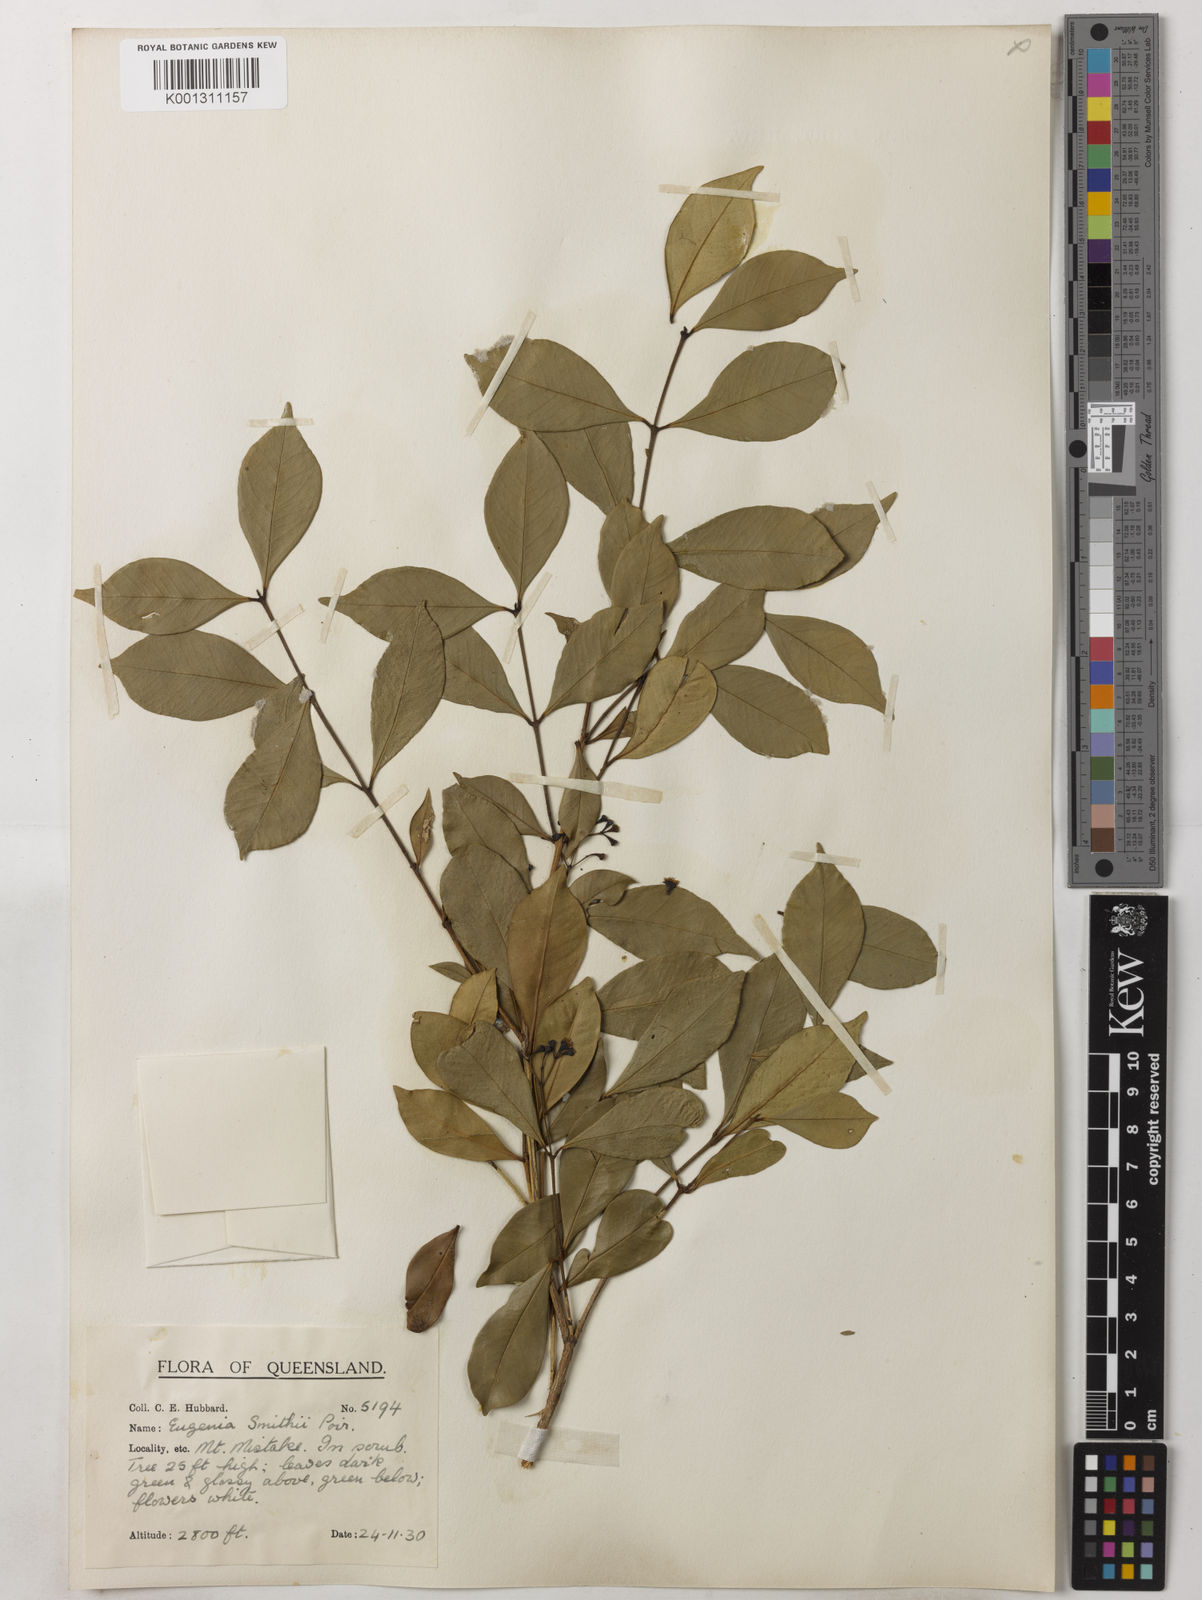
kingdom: Plantae
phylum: Tracheophyta
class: Magnoliopsida
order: Myrtales
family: Myrtaceae
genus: Syzygium
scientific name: Syzygium smithii
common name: Lilly-pilly
